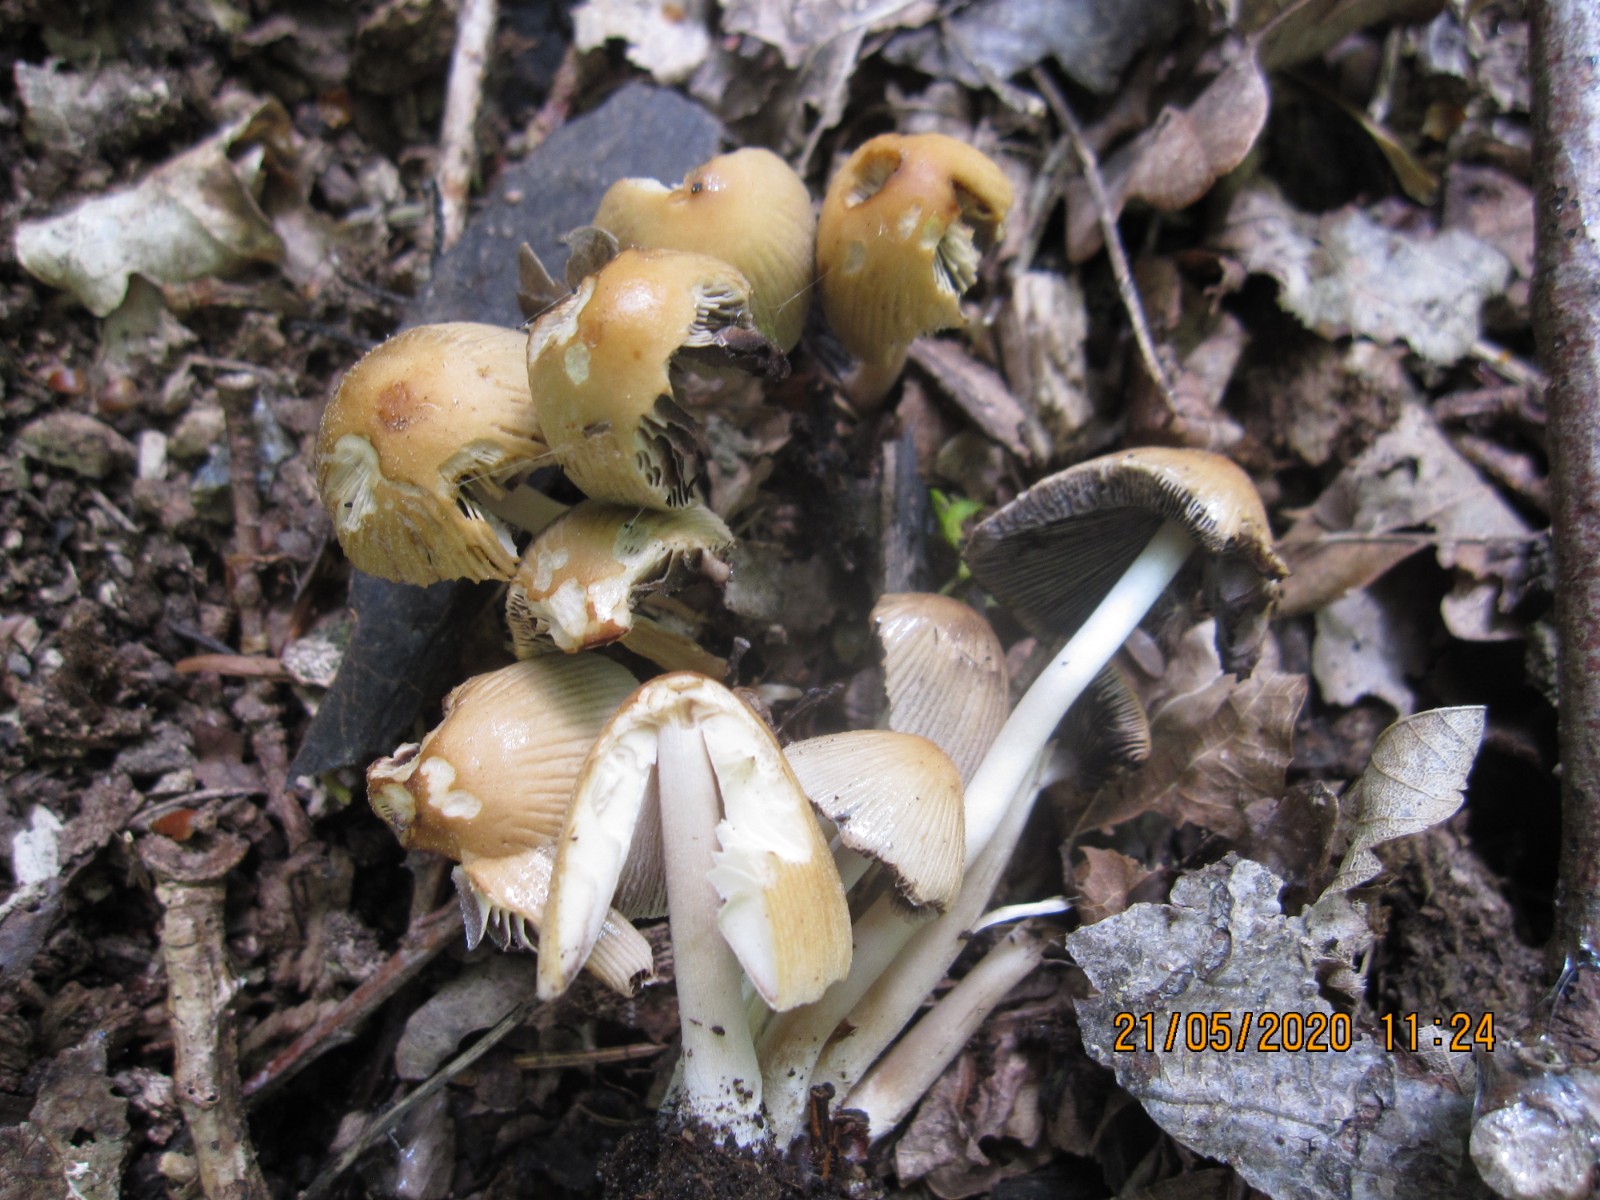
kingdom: Fungi
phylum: Basidiomycota
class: Agaricomycetes
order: Agaricales
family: Psathyrellaceae
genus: Coprinellus
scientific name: Coprinellus micaceus
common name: glimmer-blækhat
